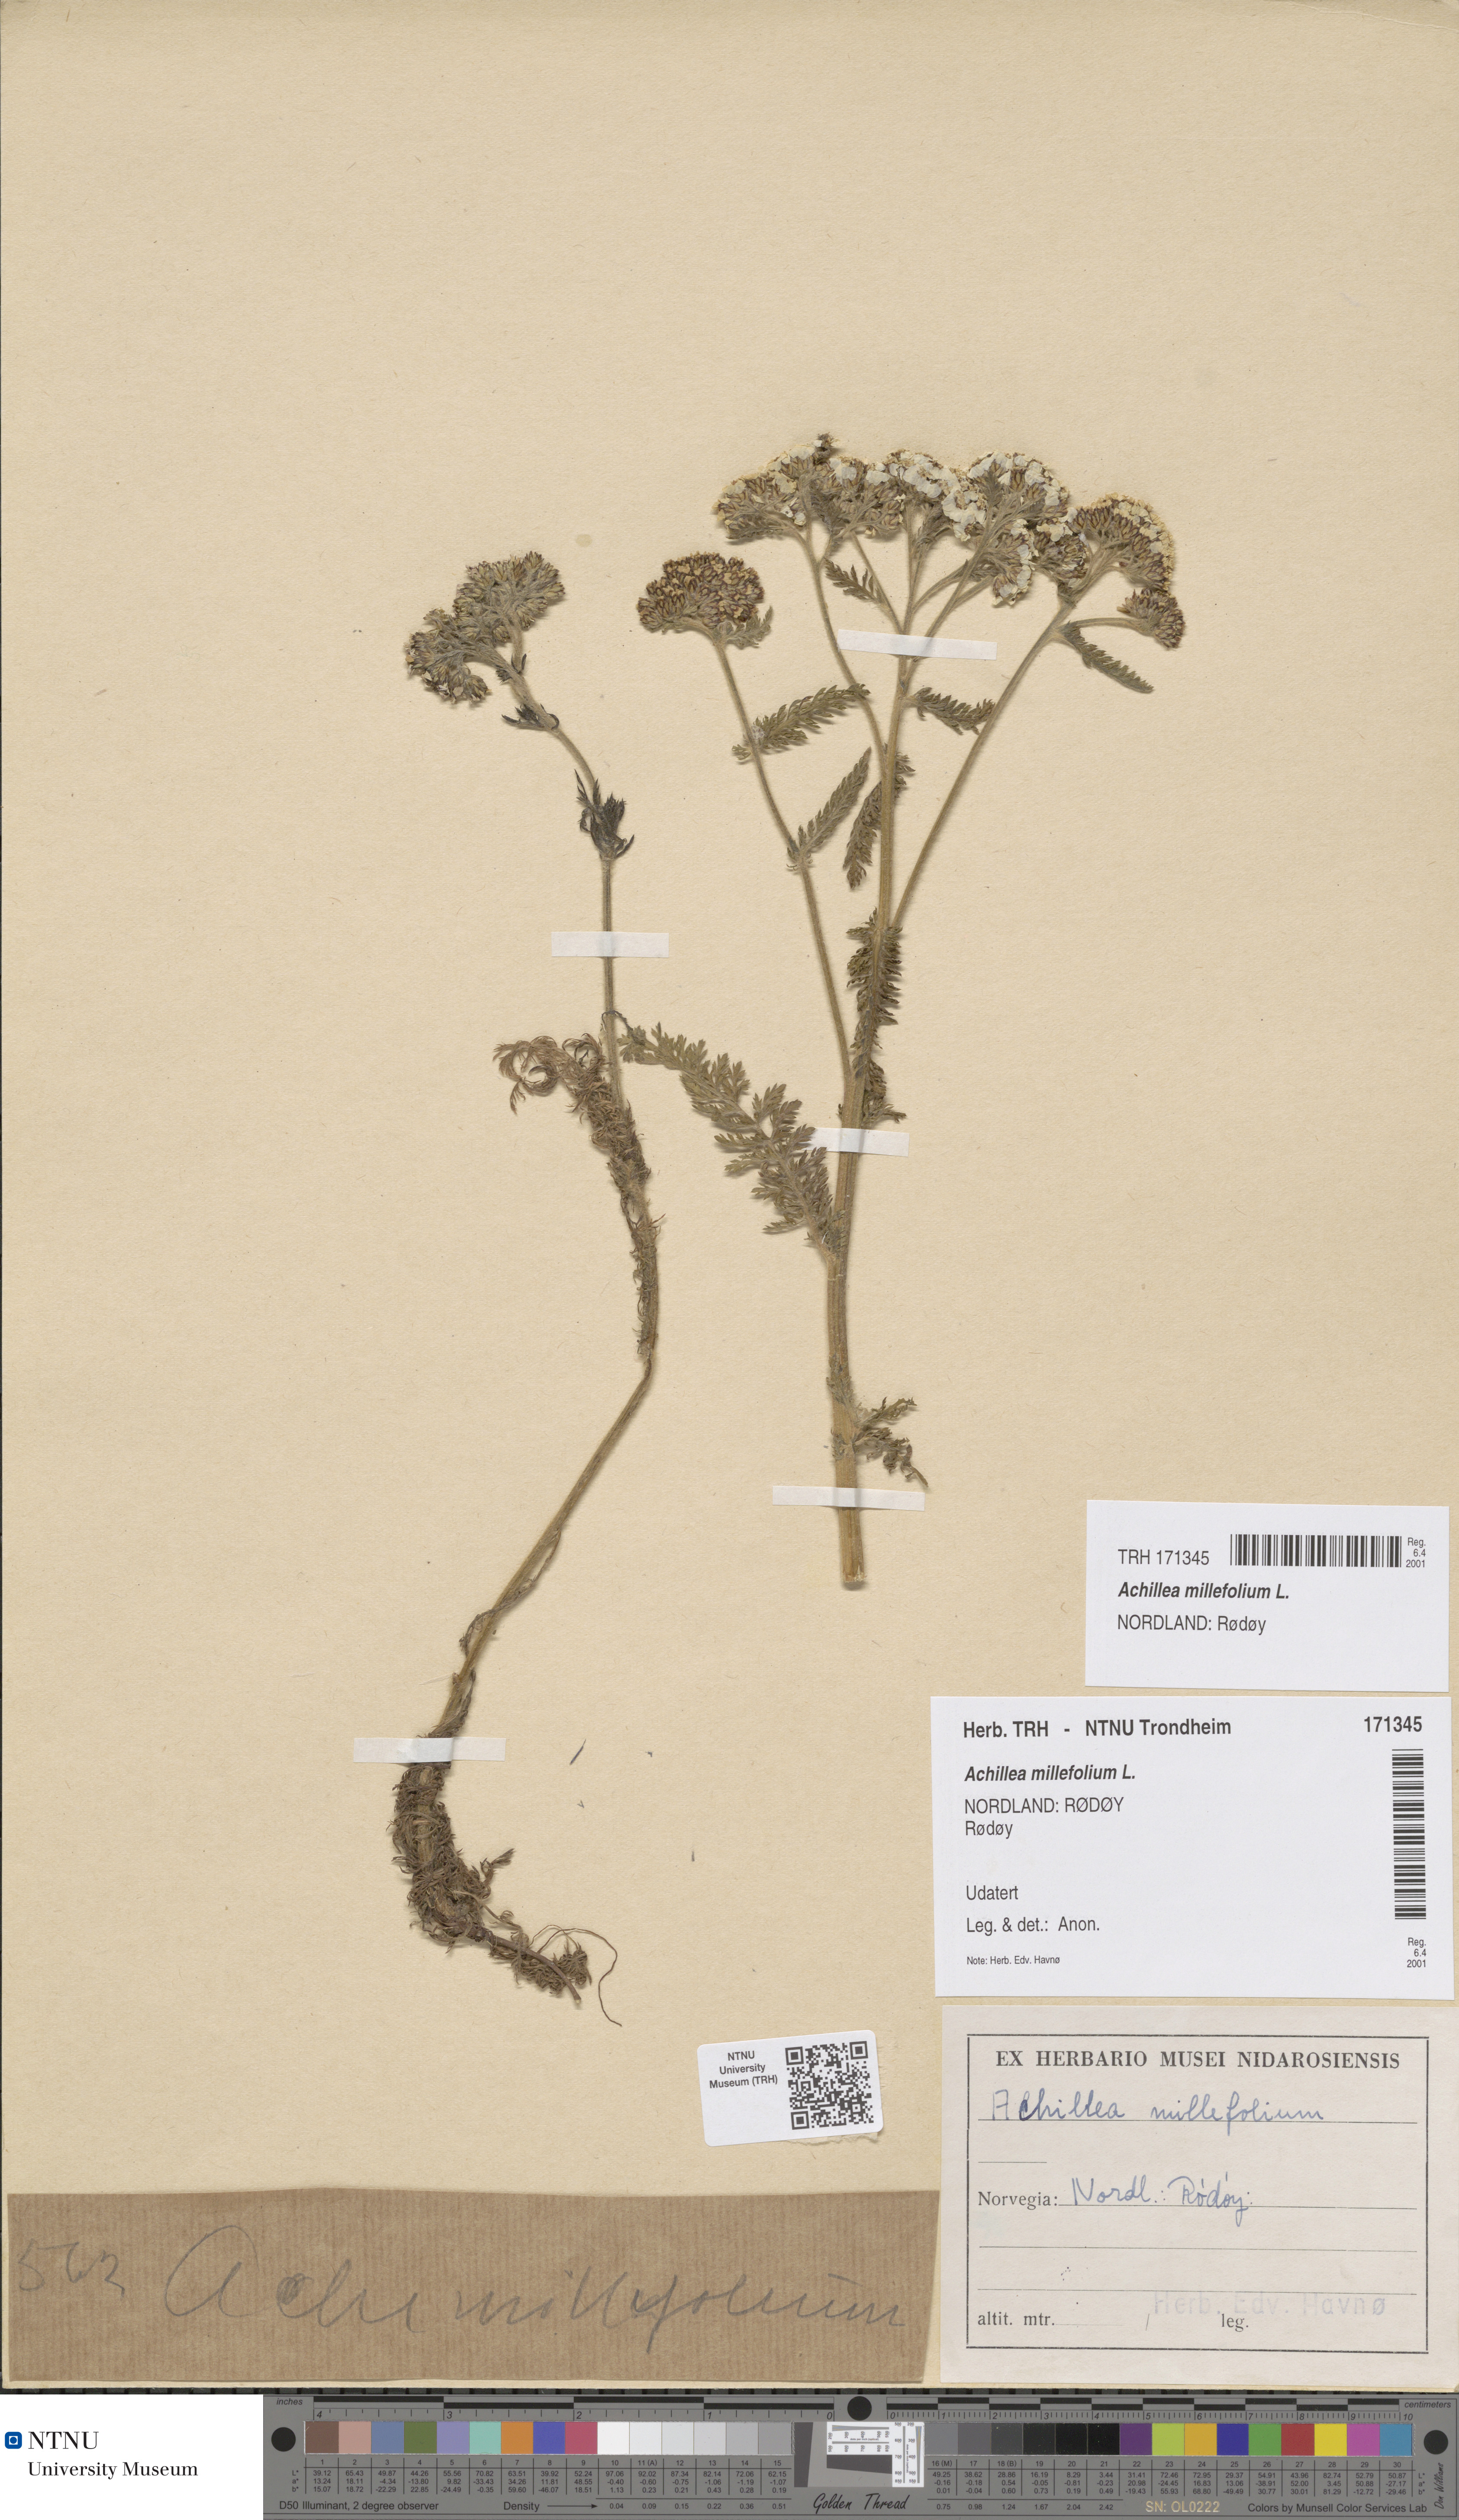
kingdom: Plantae
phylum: Tracheophyta
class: Magnoliopsida
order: Asterales
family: Asteraceae
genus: Achillea
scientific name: Achillea millefolium
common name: Yarrow
